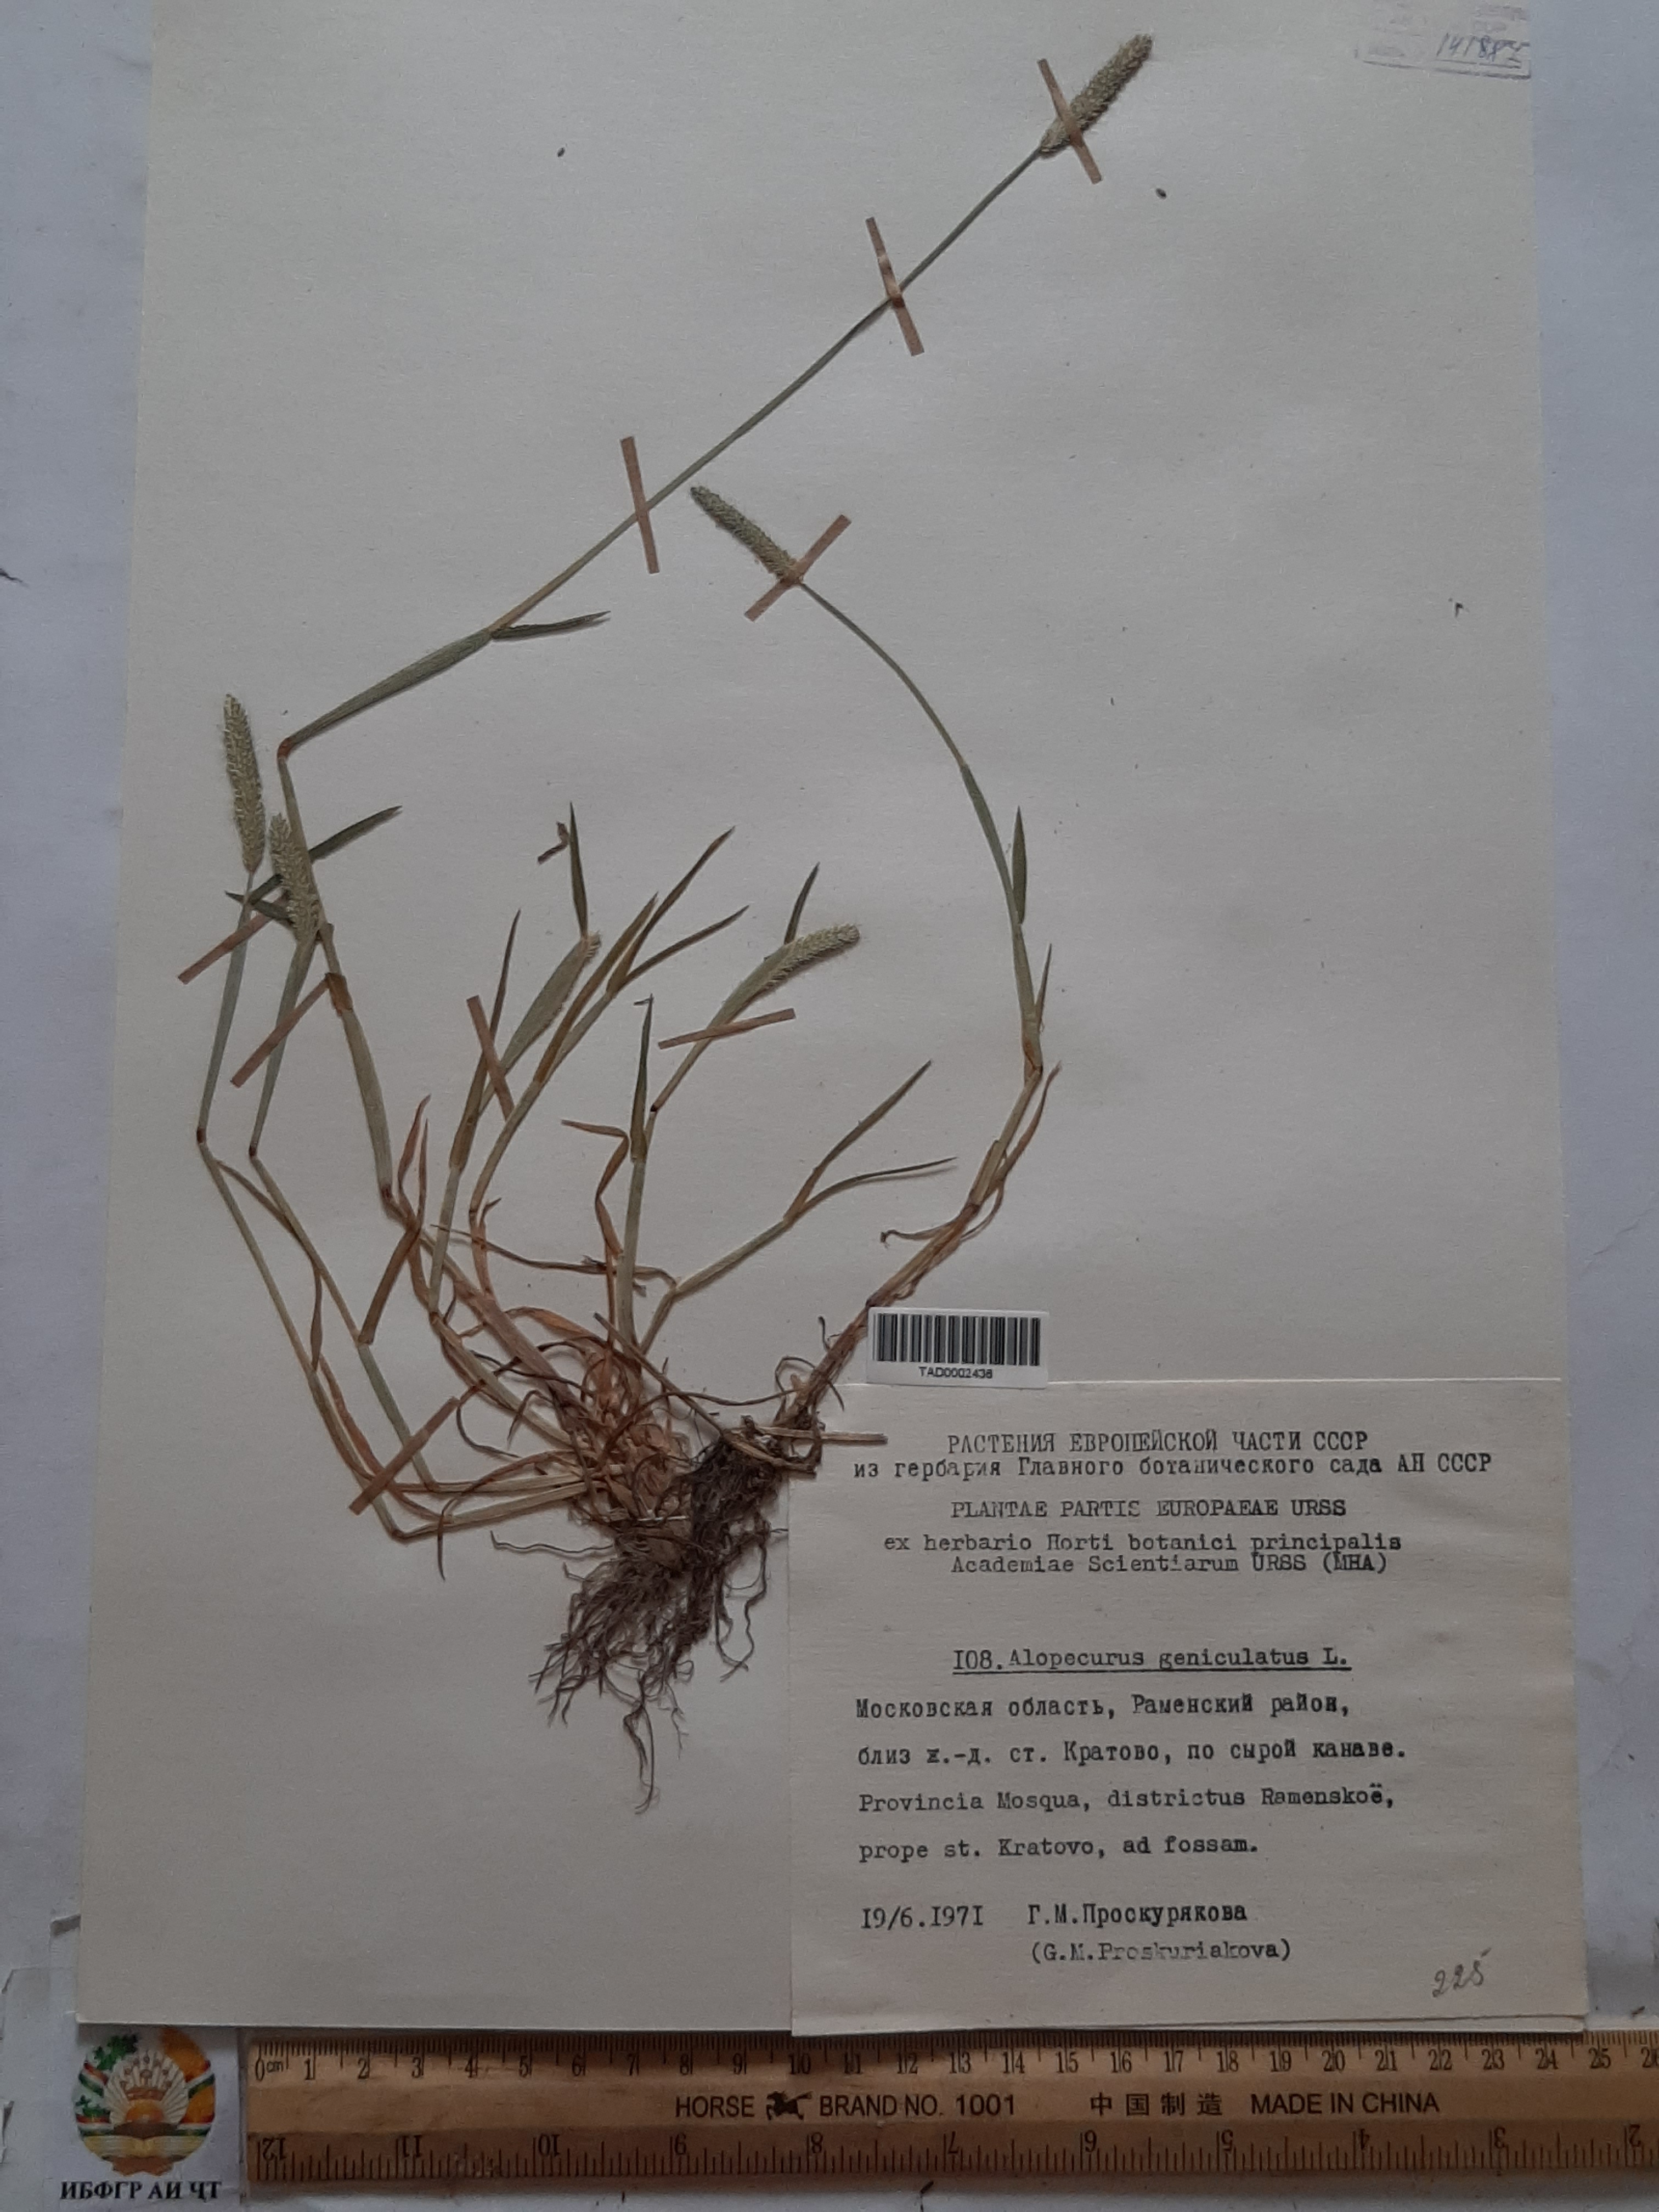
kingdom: Plantae
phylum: Tracheophyta
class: Liliopsida
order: Poales
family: Poaceae
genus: Alopecurus
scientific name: Alopecurus geniculatus
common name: Water foxtail
